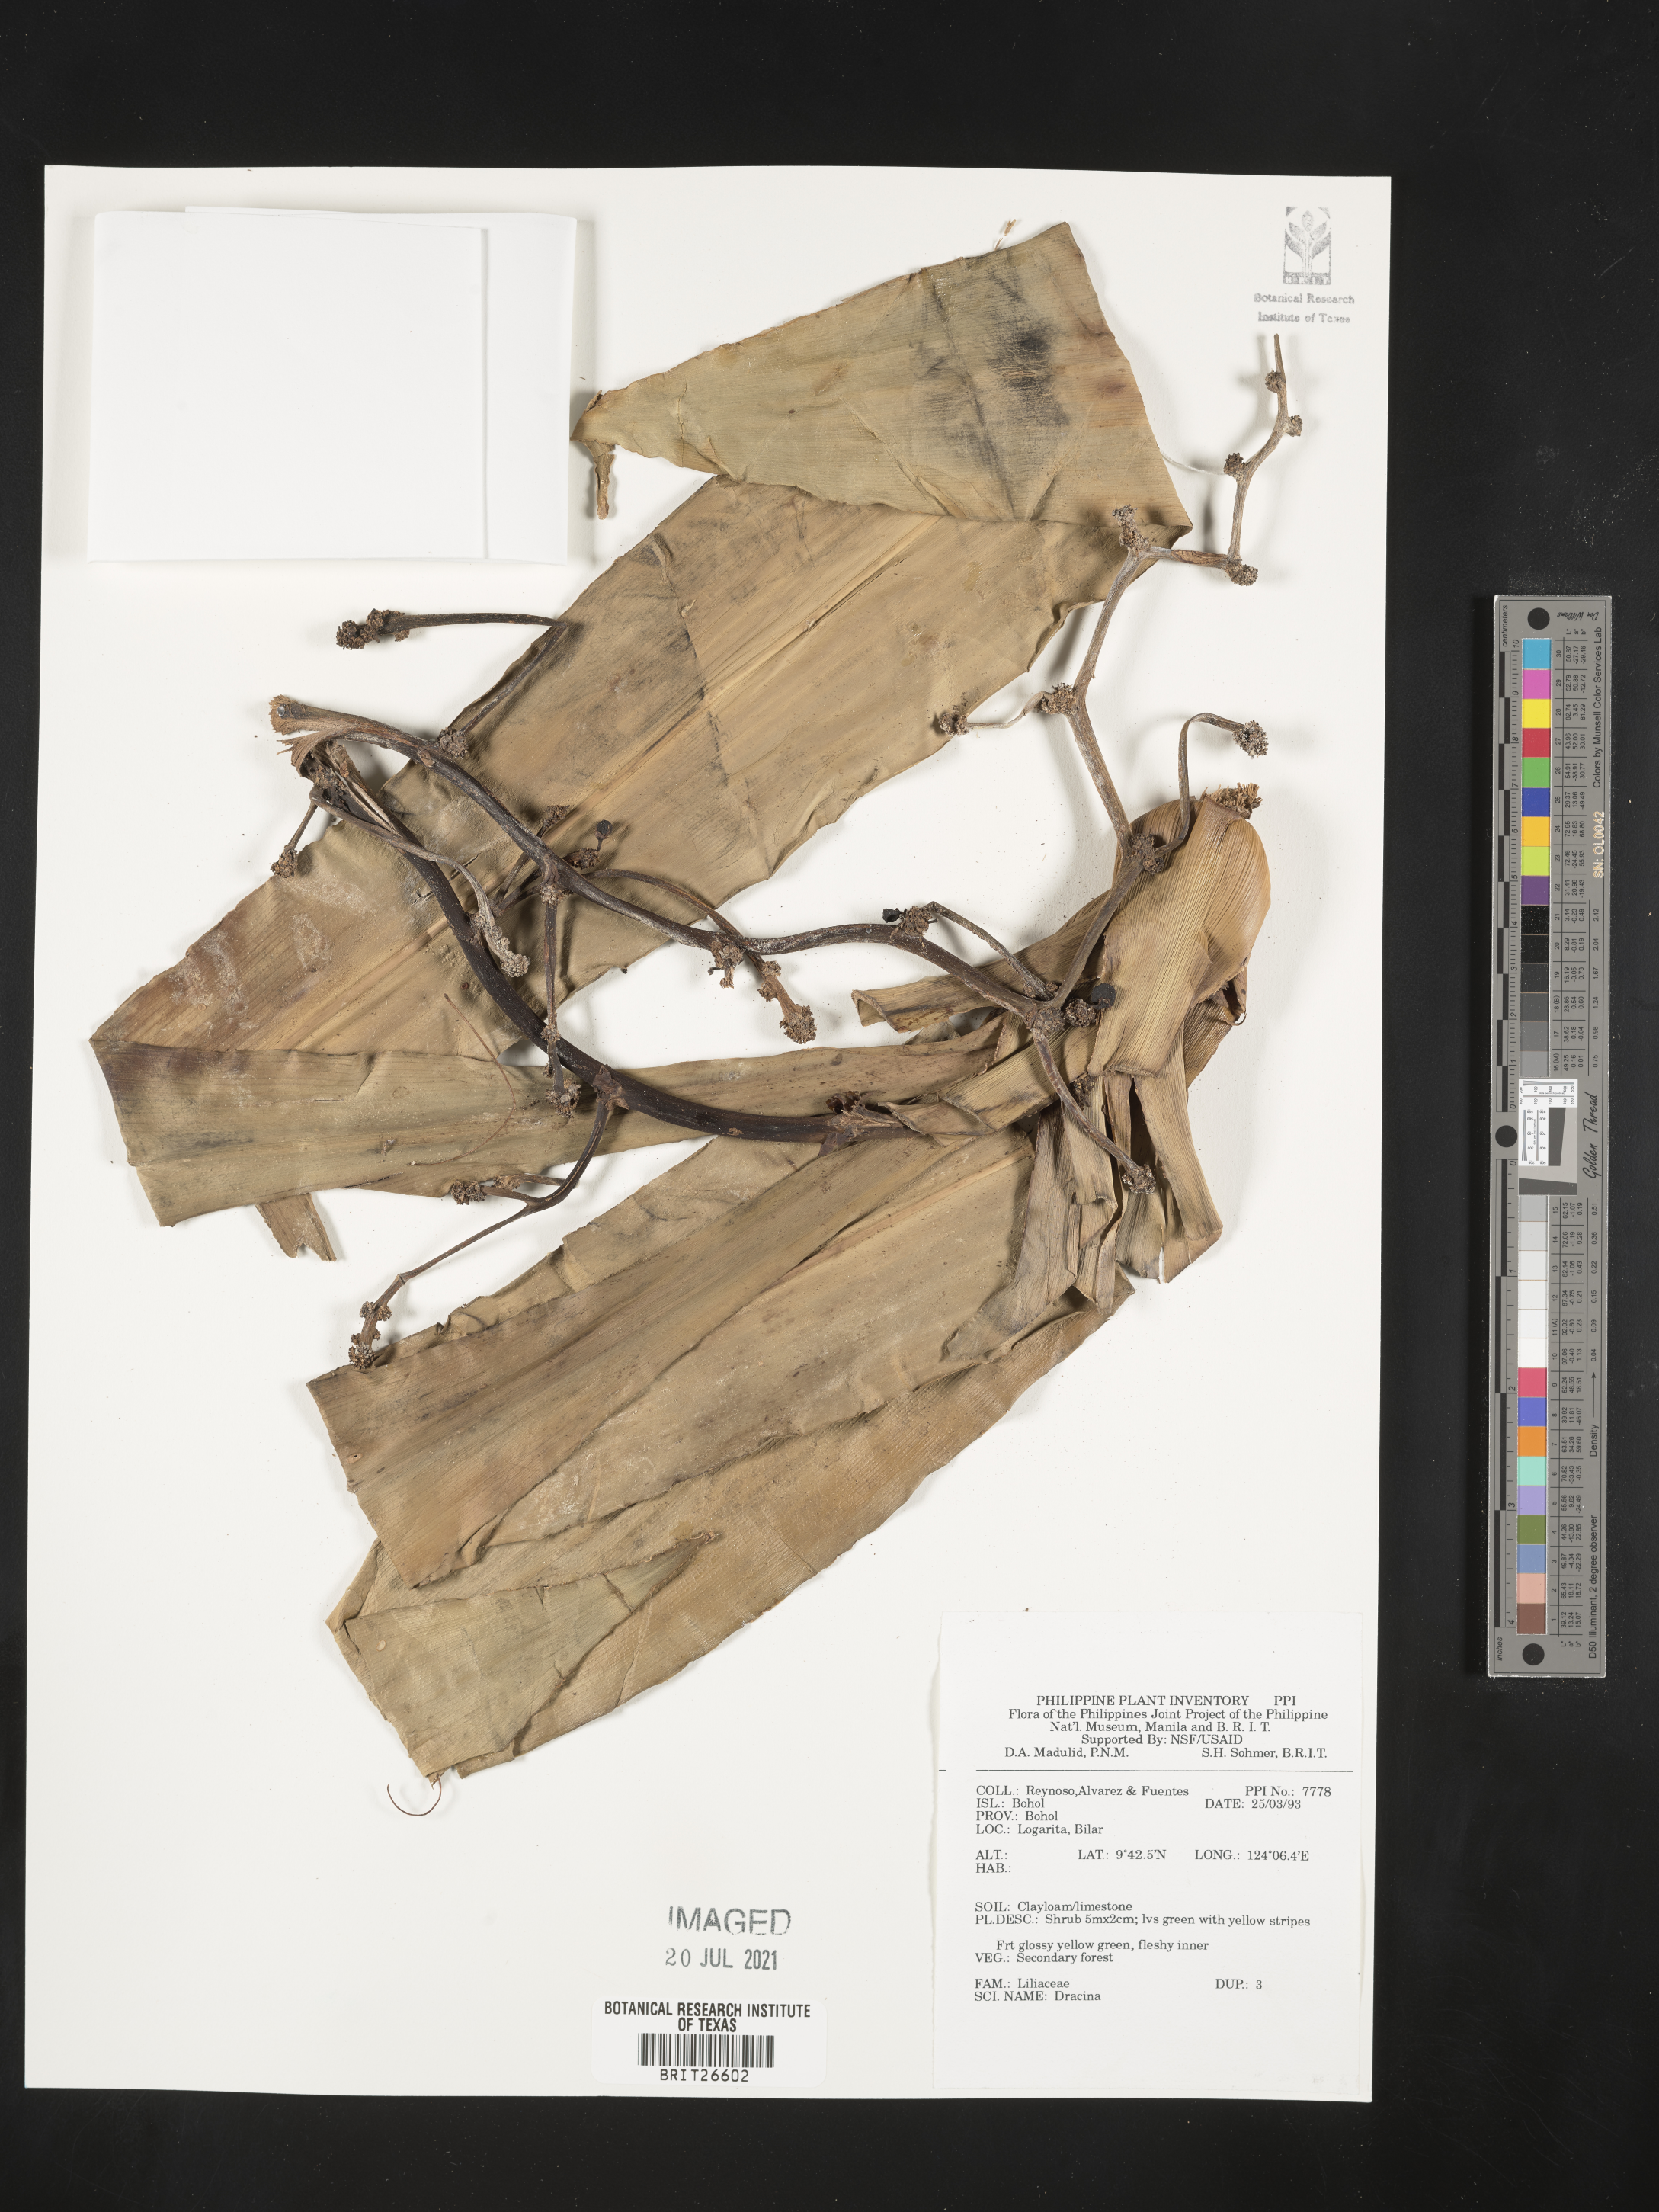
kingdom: Plantae
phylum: Tracheophyta
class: Liliopsida
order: Asparagales
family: Asparagaceae
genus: Dracaena
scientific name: Dracaena
